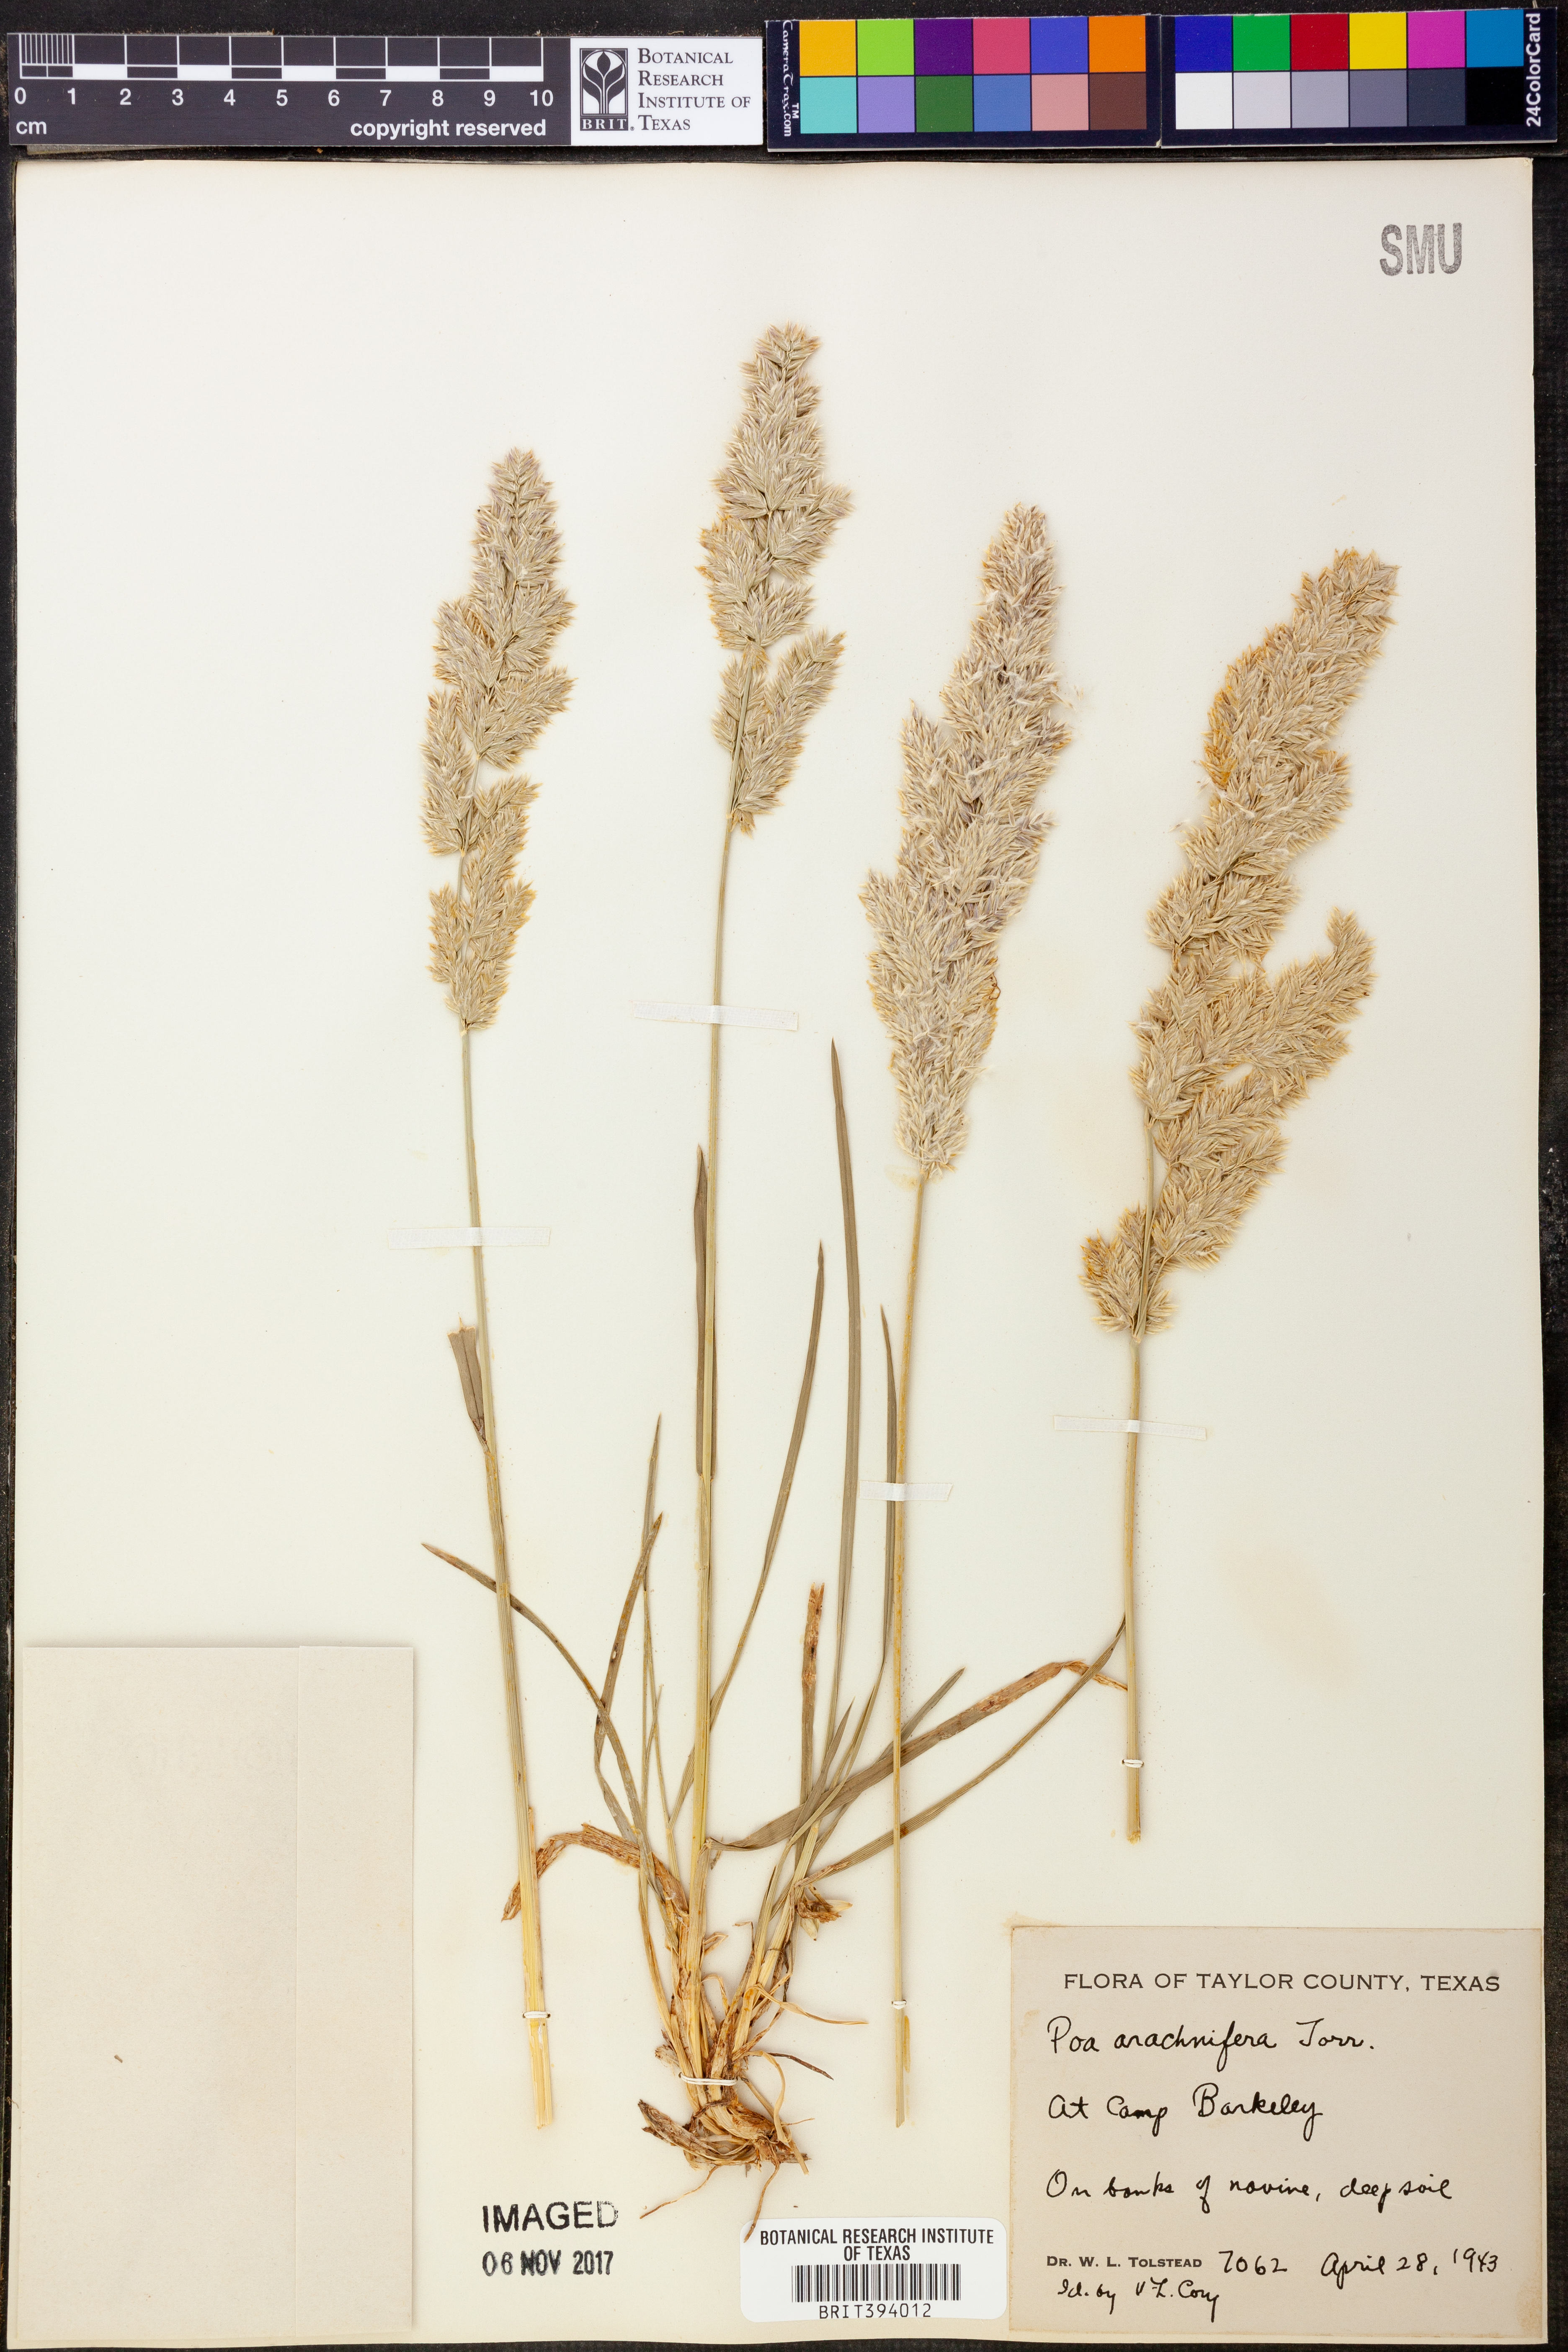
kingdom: Plantae
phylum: Tracheophyta
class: Liliopsida
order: Poales
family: Poaceae
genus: Poa
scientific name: Poa arachnifera
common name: Texas bluegrass
